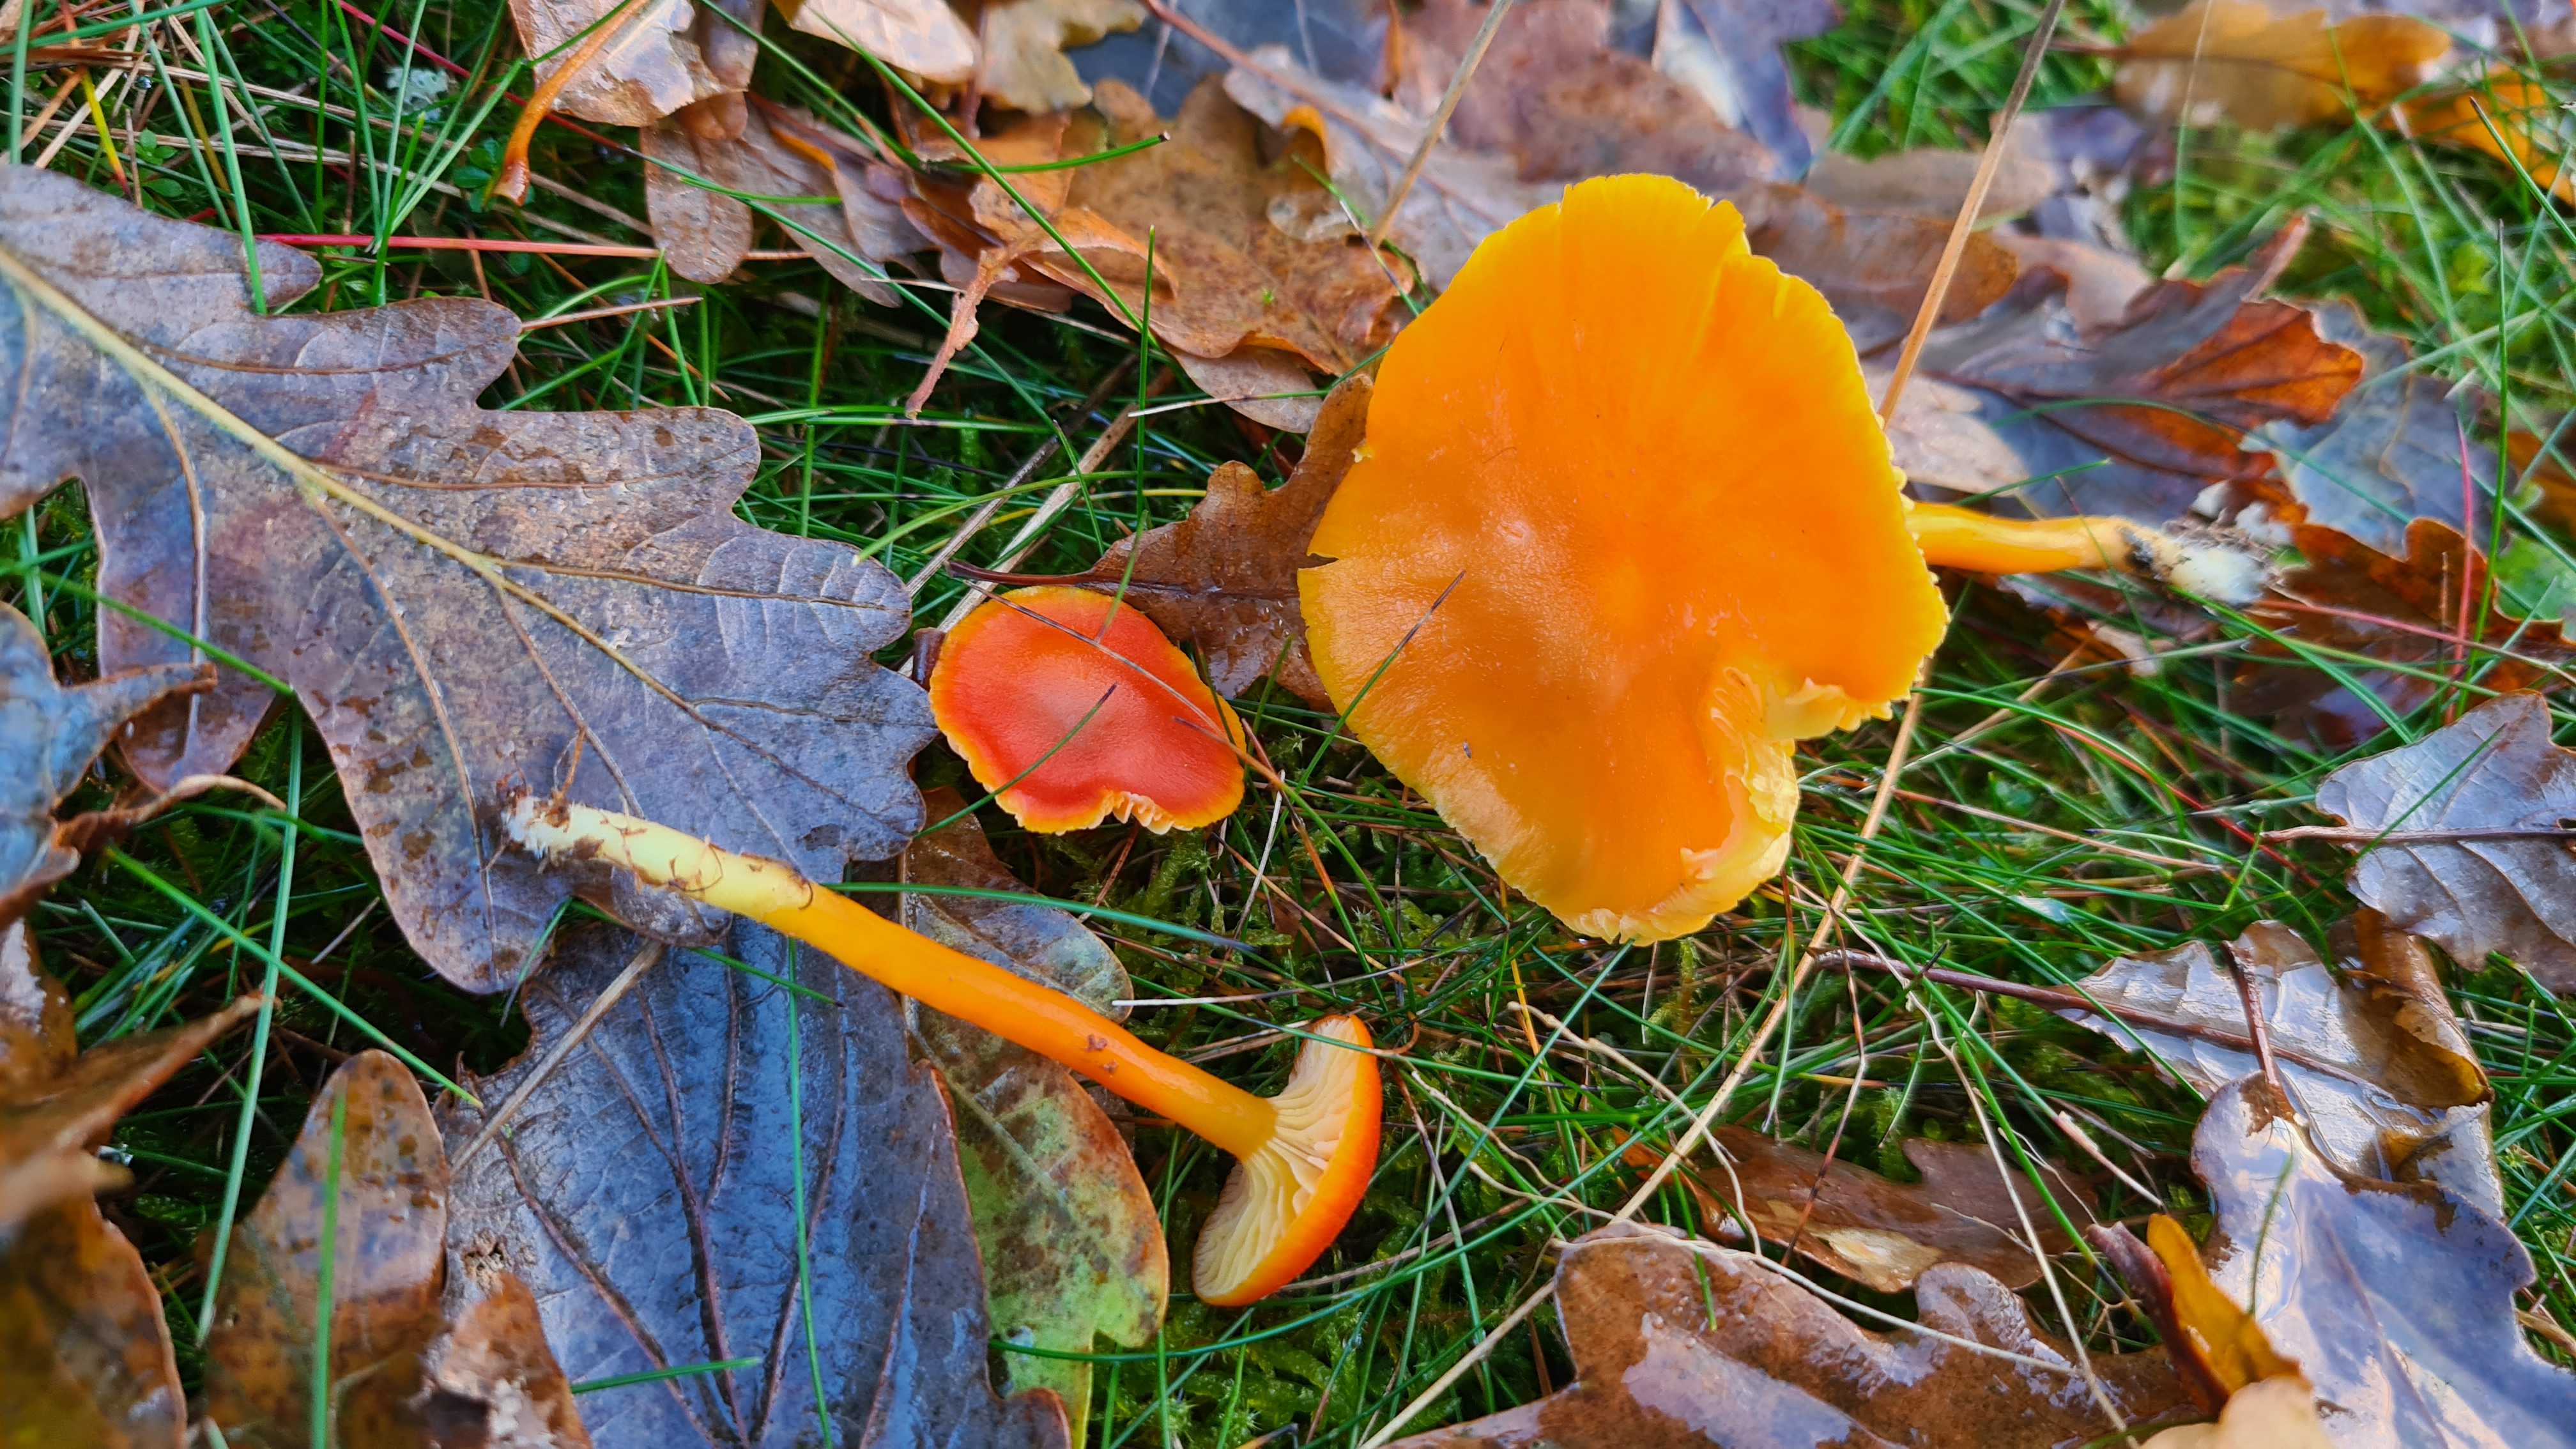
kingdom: Fungi
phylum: Basidiomycota
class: Agaricomycetes
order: Agaricales
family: Hygrophoraceae
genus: Hygrocybe
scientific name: Hygrocybe miniata
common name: mønje-vokshat
